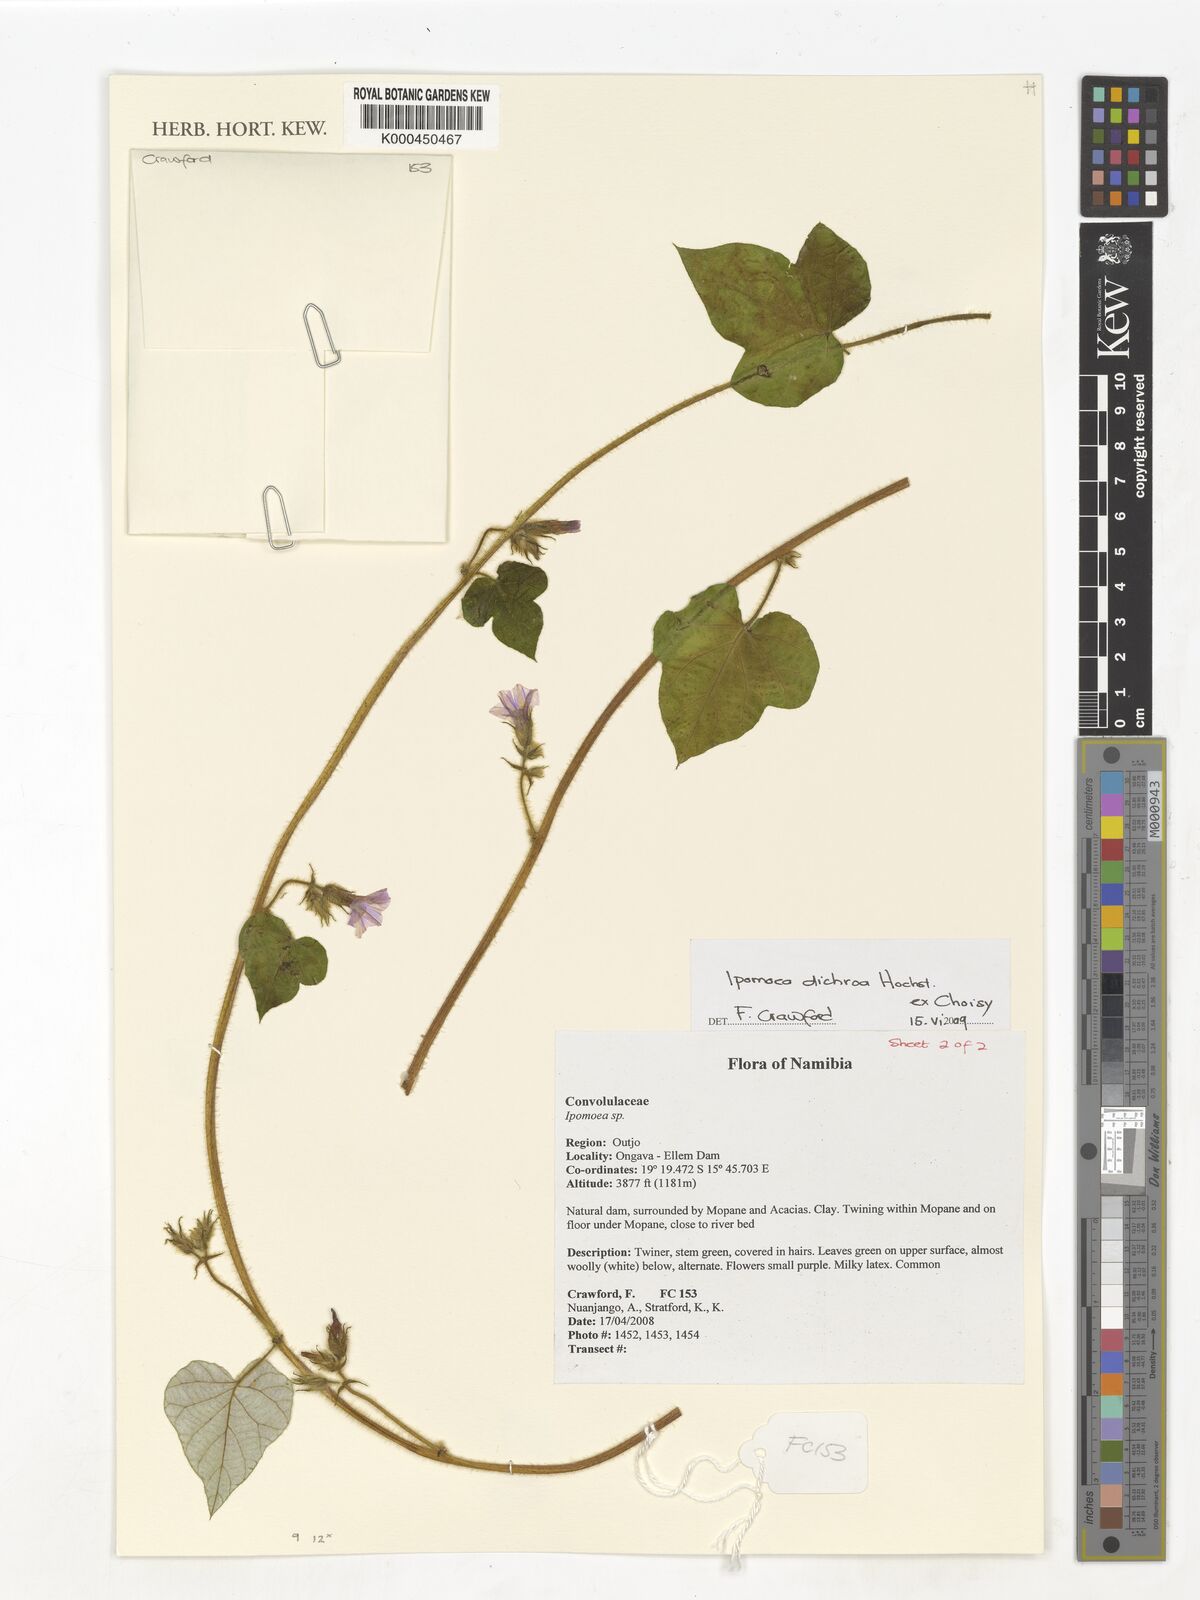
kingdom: Plantae
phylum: Tracheophyta
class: Magnoliopsida
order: Solanales
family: Convolvulaceae
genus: Ipomoea
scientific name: Ipomoea arachnosperma
